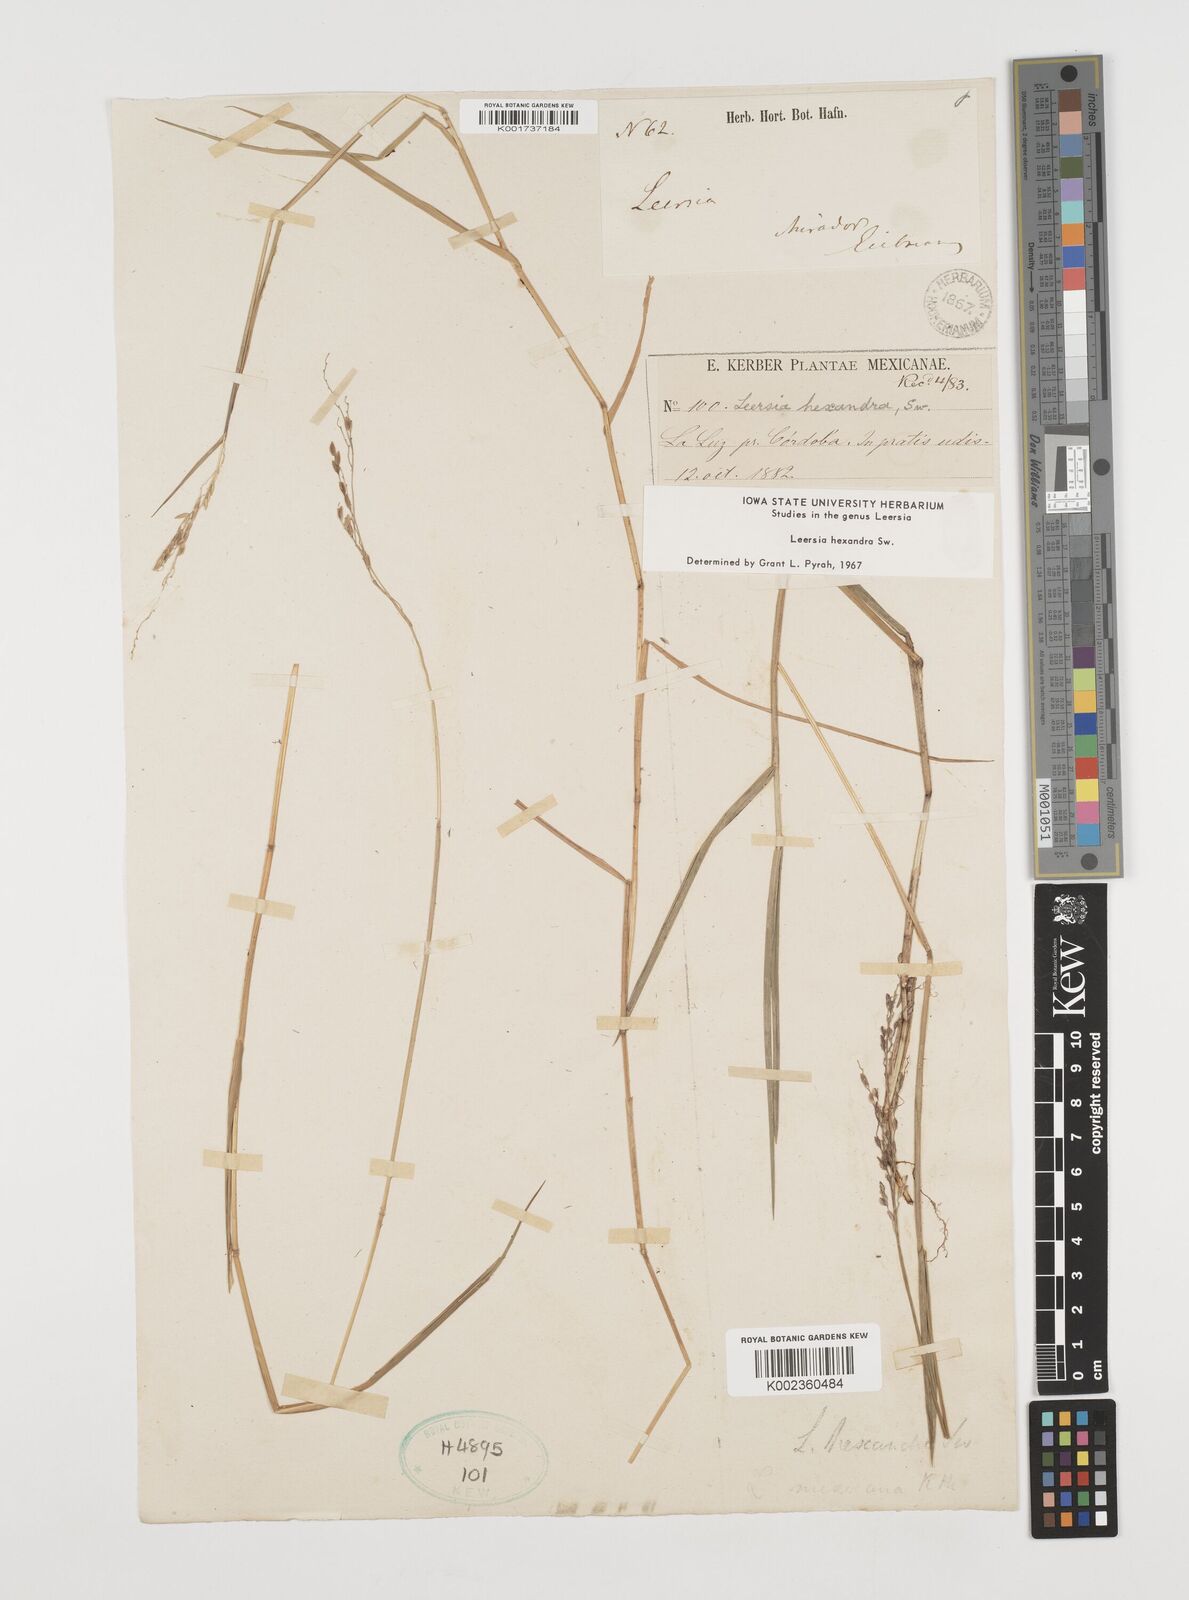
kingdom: Plantae
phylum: Tracheophyta
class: Liliopsida
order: Poales
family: Poaceae
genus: Leersia
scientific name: Leersia hexandra
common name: Southern cut grass
